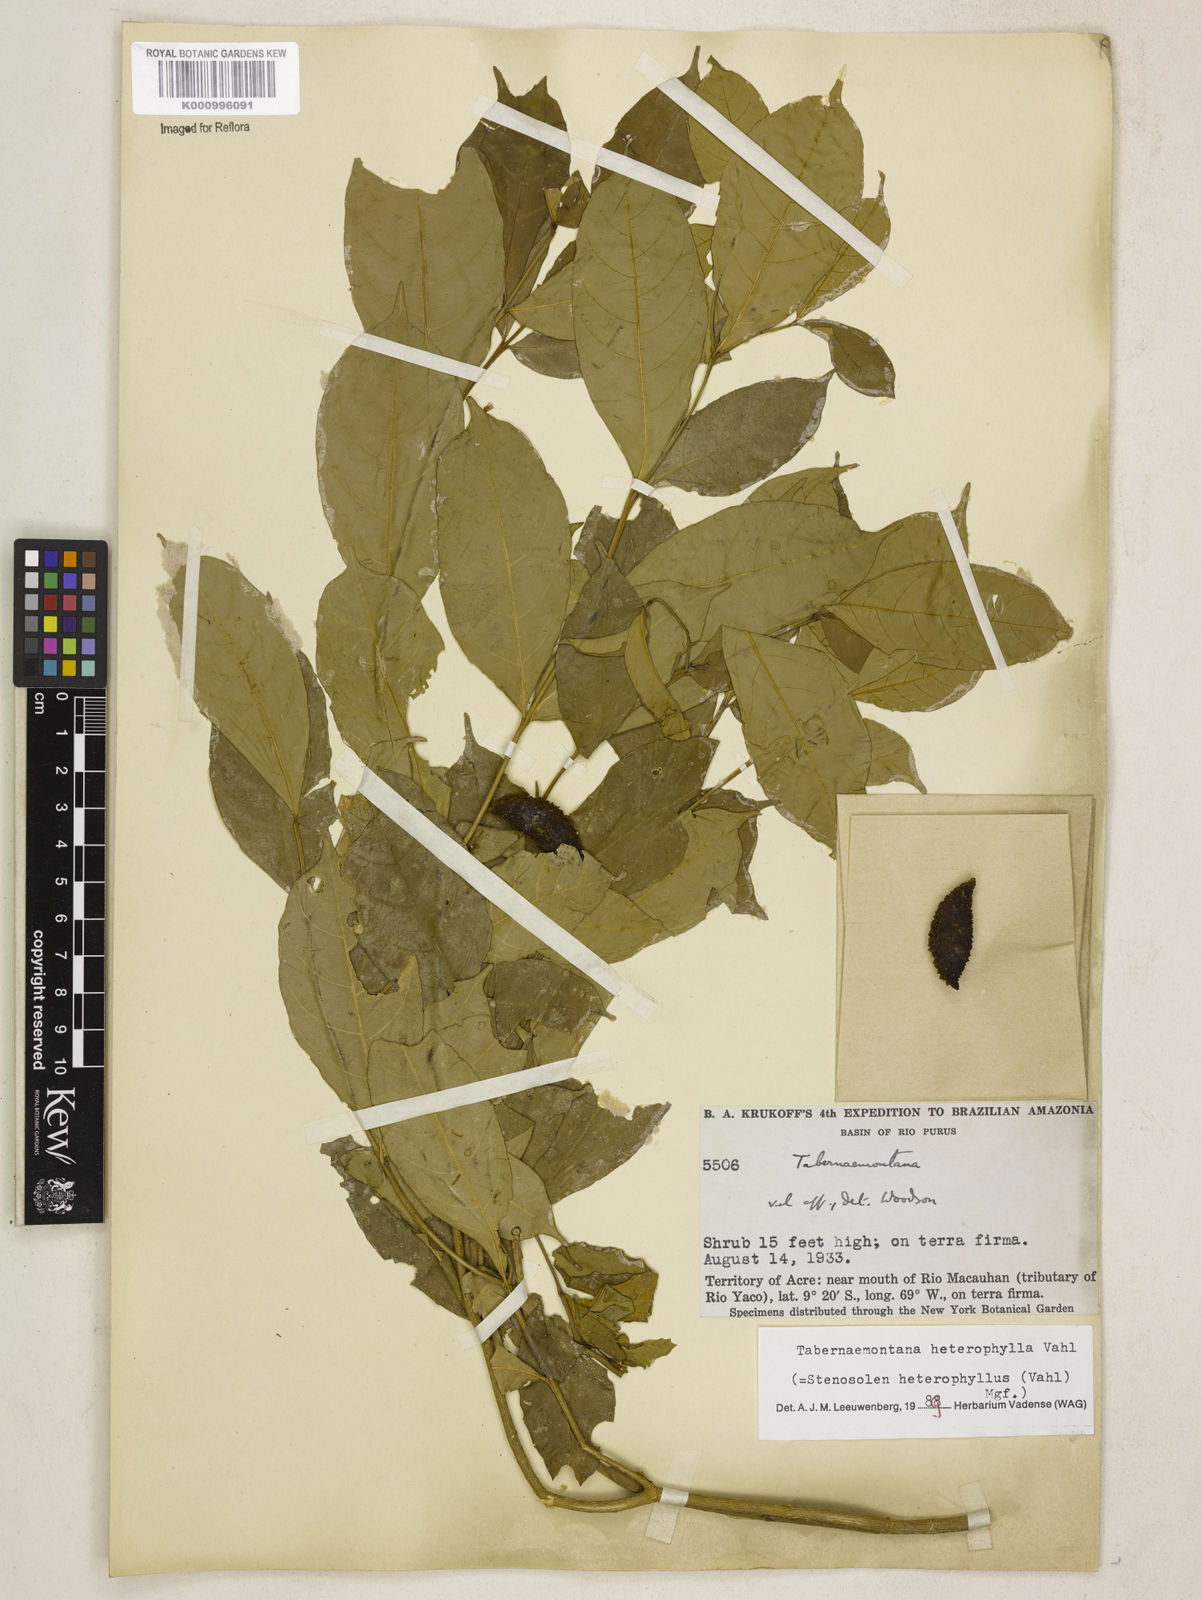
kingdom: Plantae
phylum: Tracheophyta
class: Magnoliopsida
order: Gentianales
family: Apocynaceae
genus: Tabernaemontana
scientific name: Tabernaemontana heterophylla
